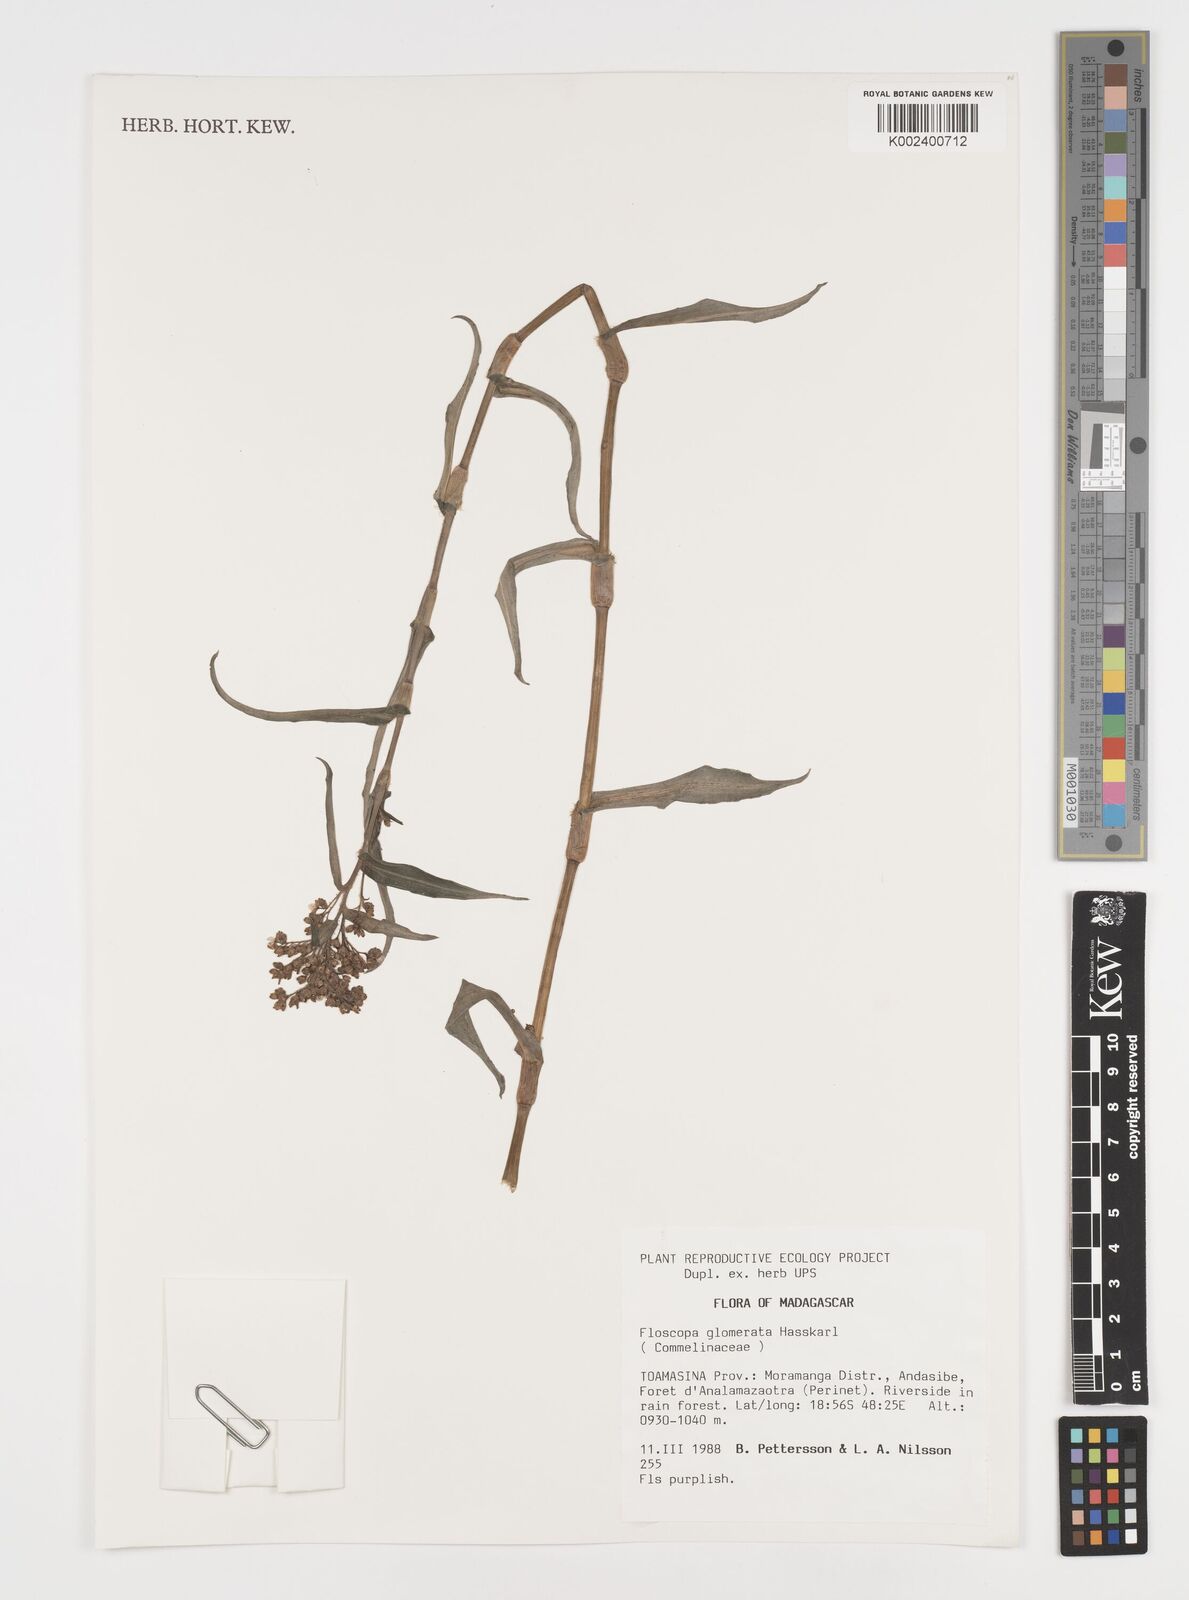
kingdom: Plantae
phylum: Tracheophyta
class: Liliopsida
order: Commelinales
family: Commelinaceae
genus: Floscopa
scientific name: Floscopa glomerata
